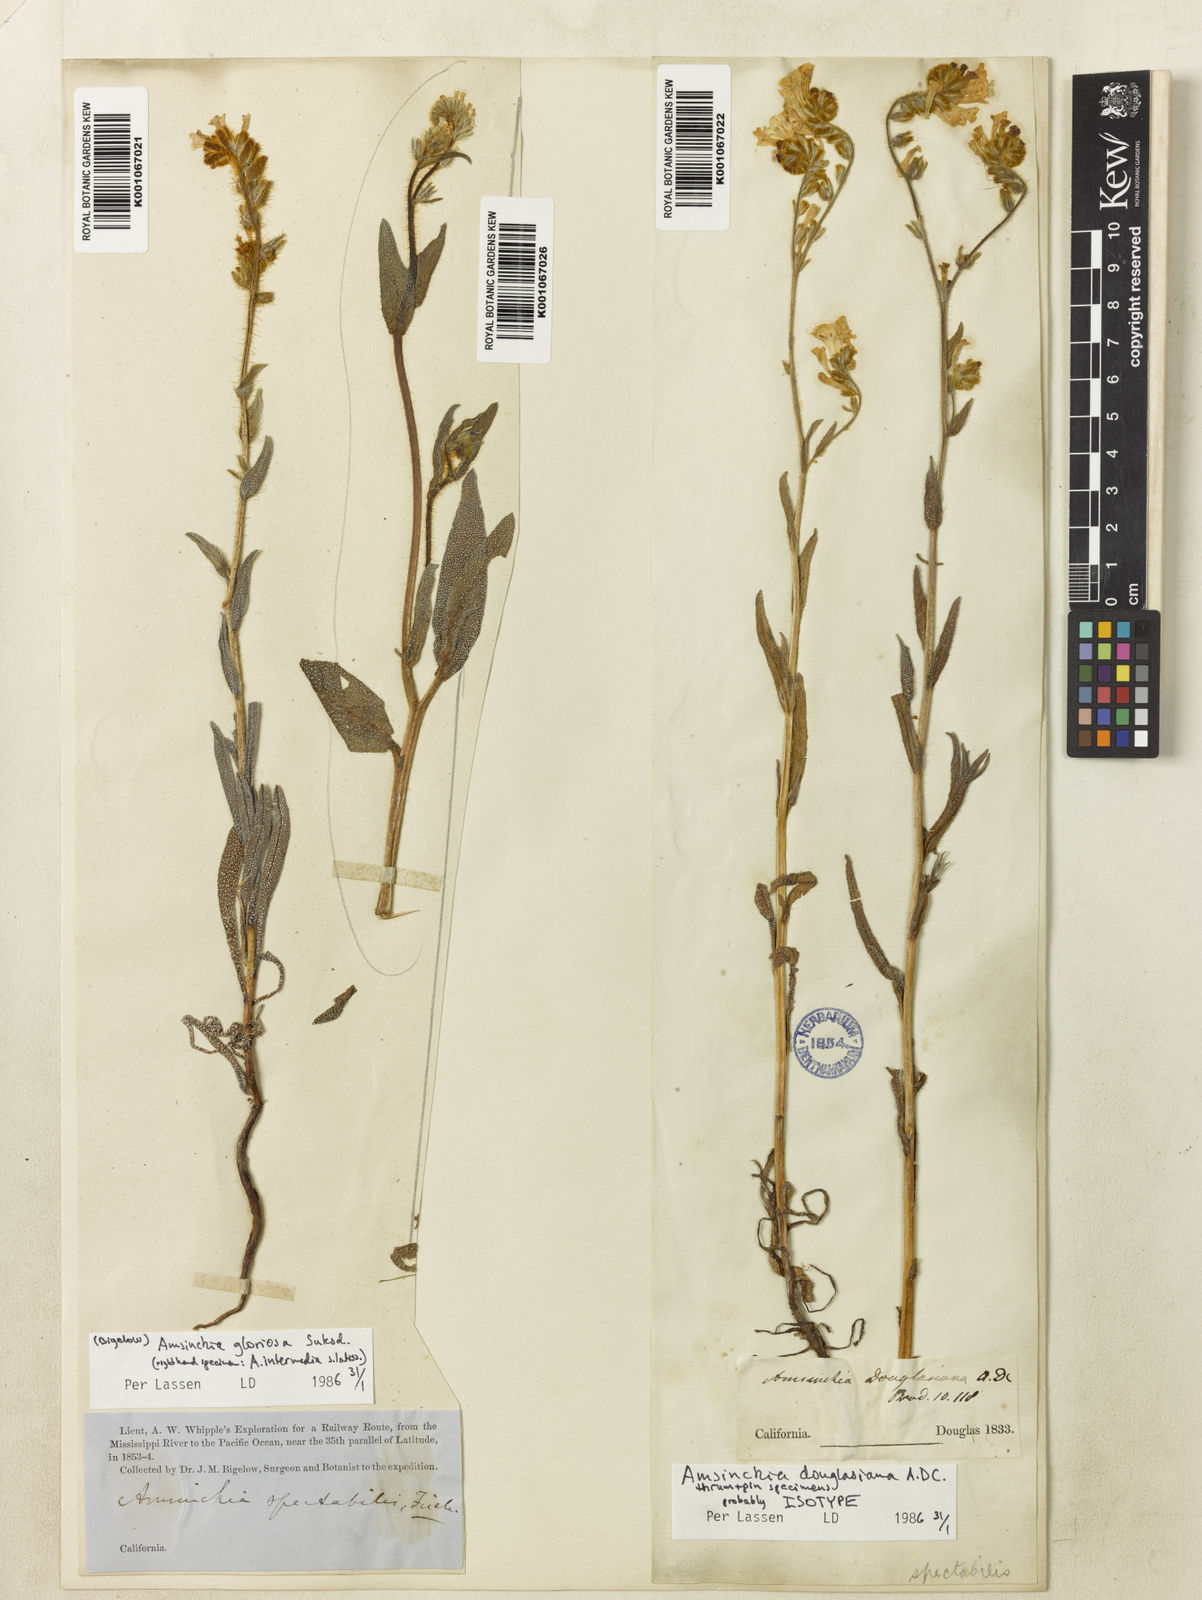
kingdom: Plantae
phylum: Tracheophyta
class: Magnoliopsida
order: Boraginales
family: Boraginaceae
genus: Amsinckia
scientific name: Amsinckia douglasiana
